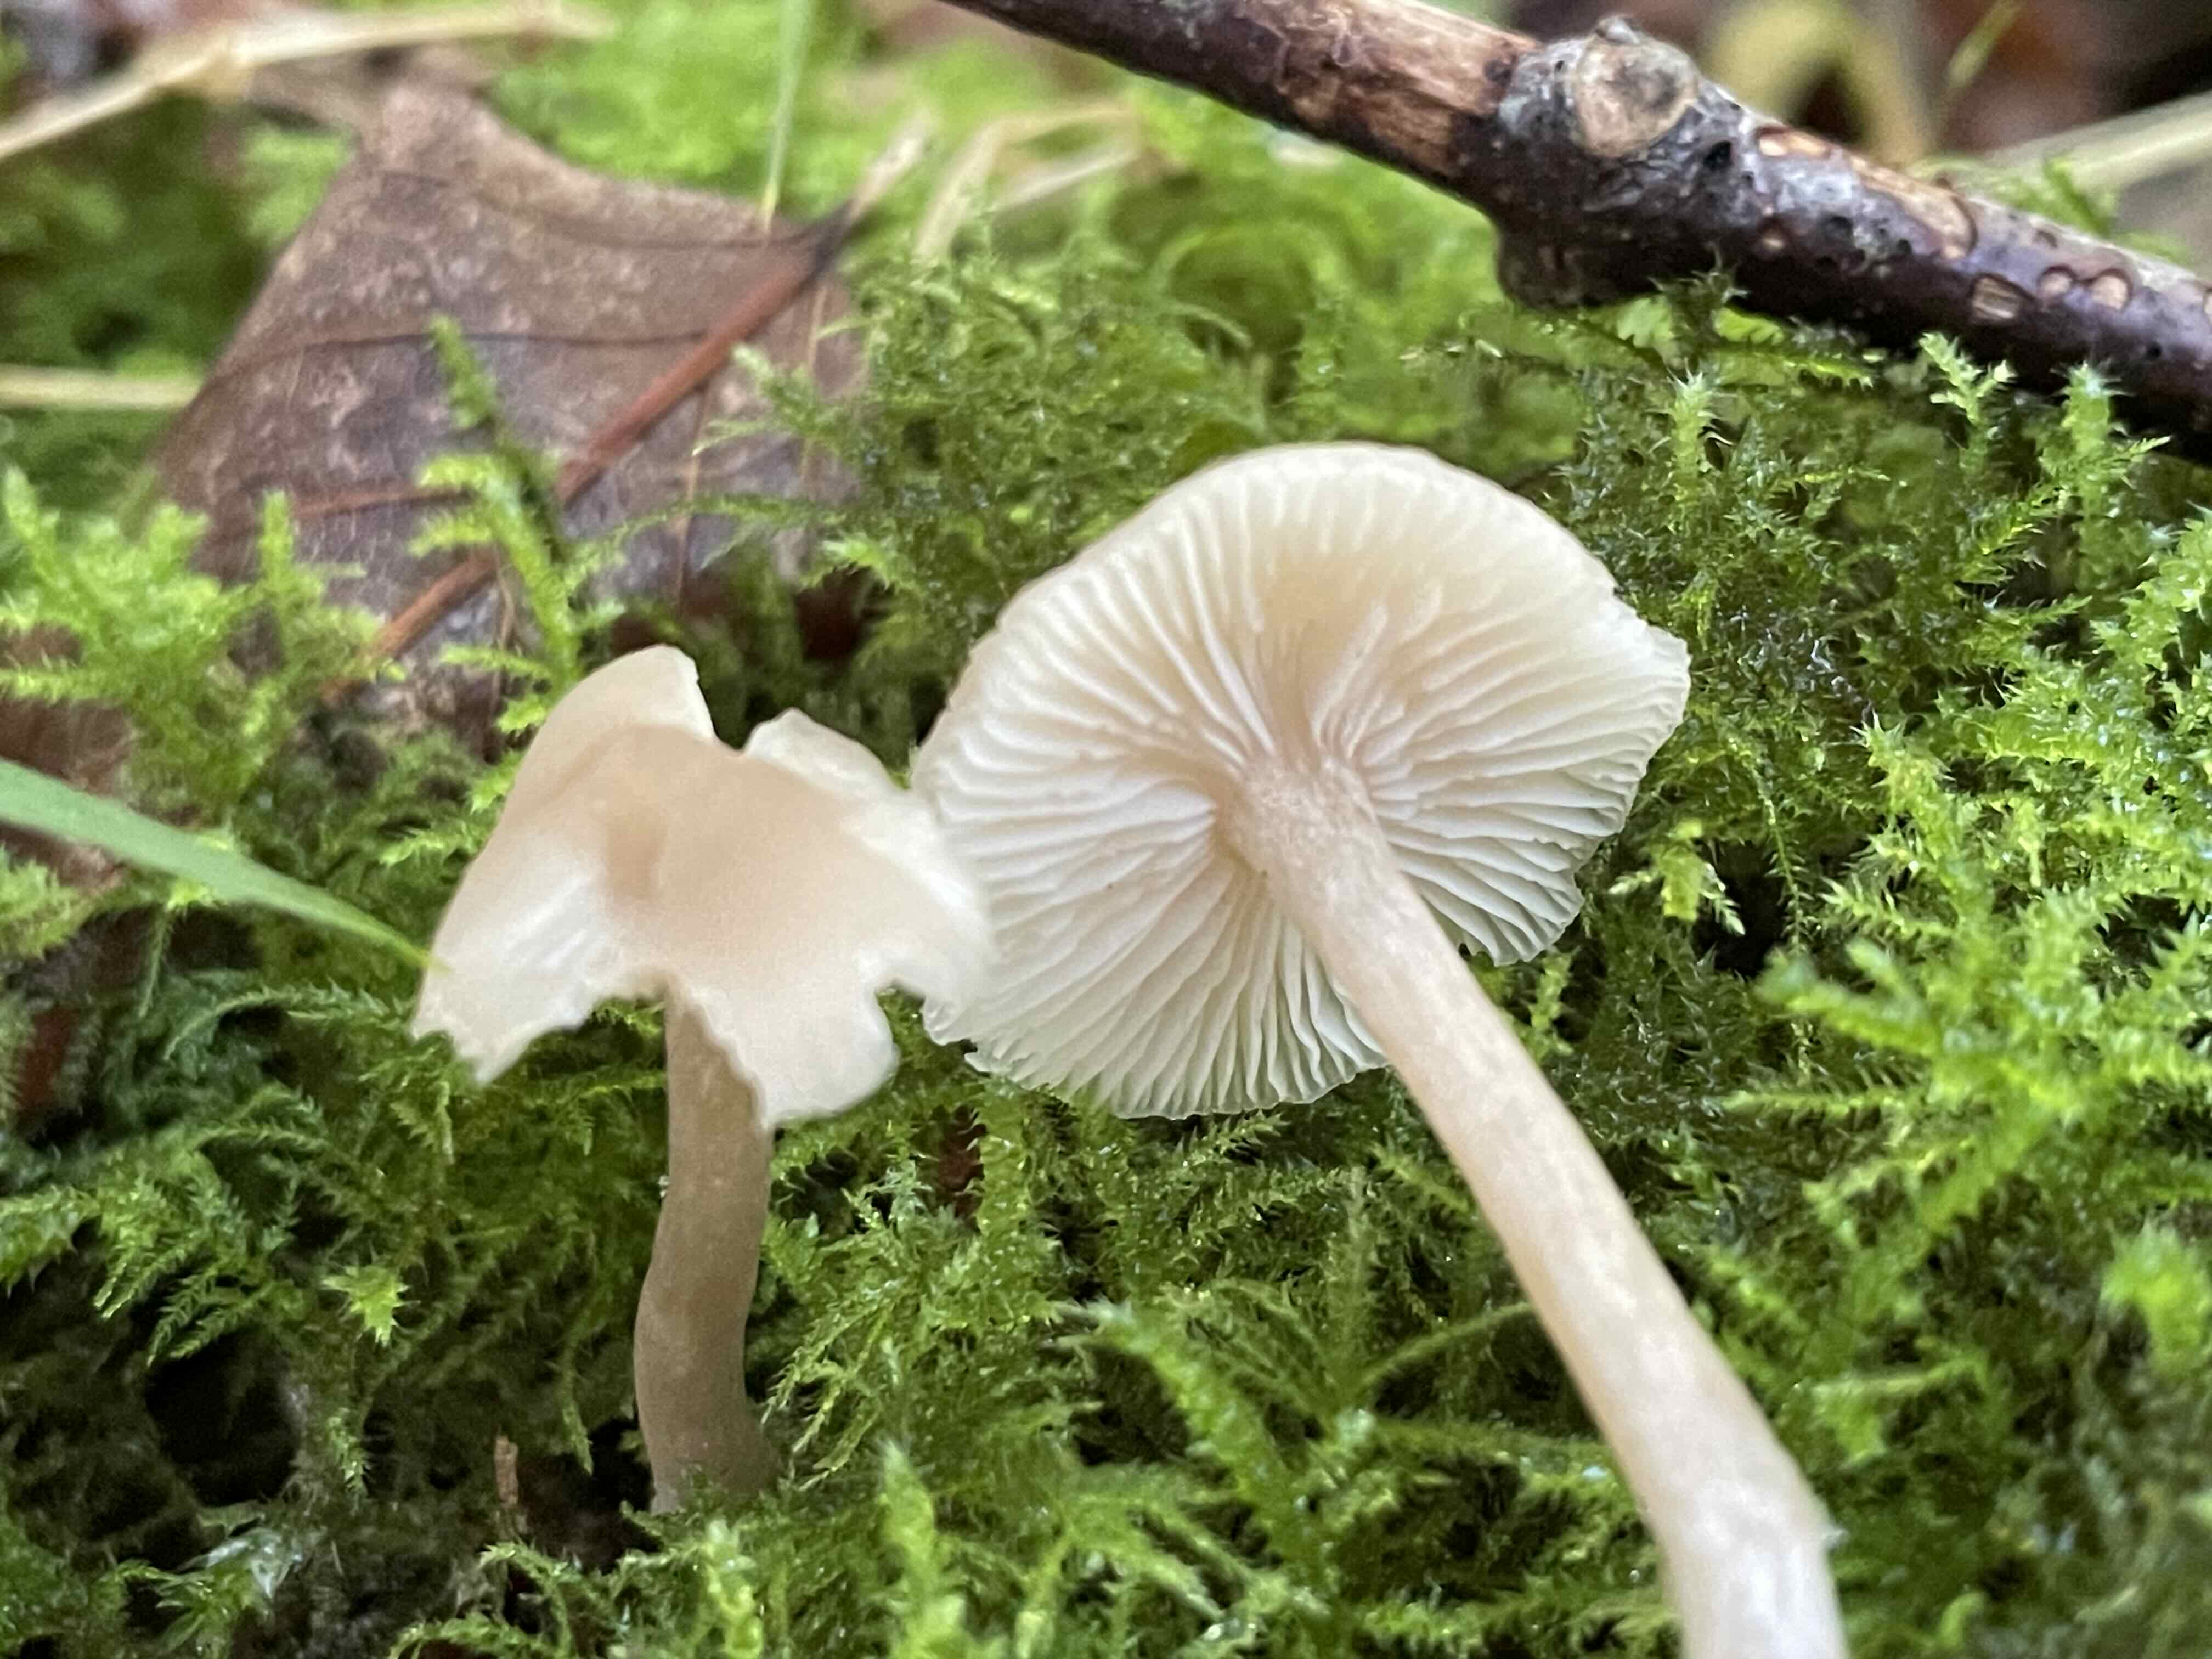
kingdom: Fungi
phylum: Basidiomycota
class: Agaricomycetes
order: Agaricales
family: Tricholomataceae
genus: Clitocybe
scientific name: Clitocybe fragrans
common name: vellugtende tragthat
